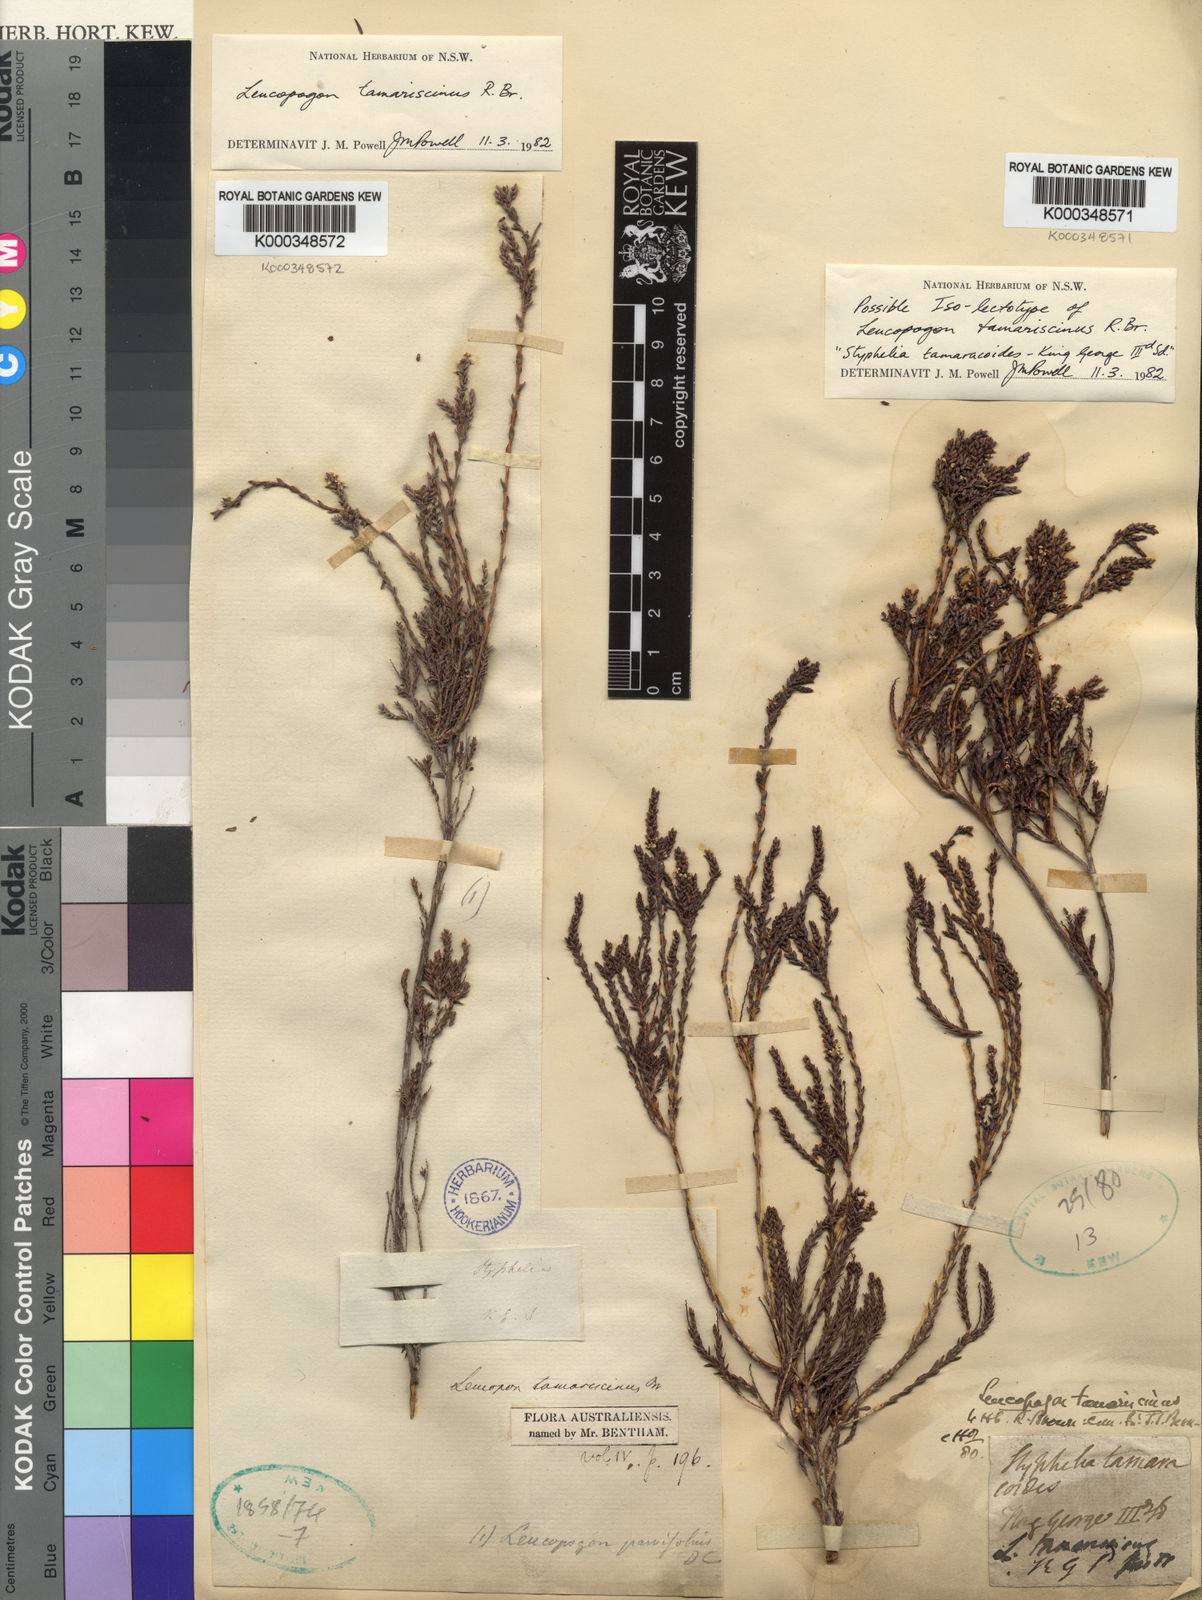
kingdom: Plantae
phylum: Tracheophyta
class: Magnoliopsida
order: Ericales
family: Ericaceae
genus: Leucopogon
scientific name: Leucopogon tamariscinus
